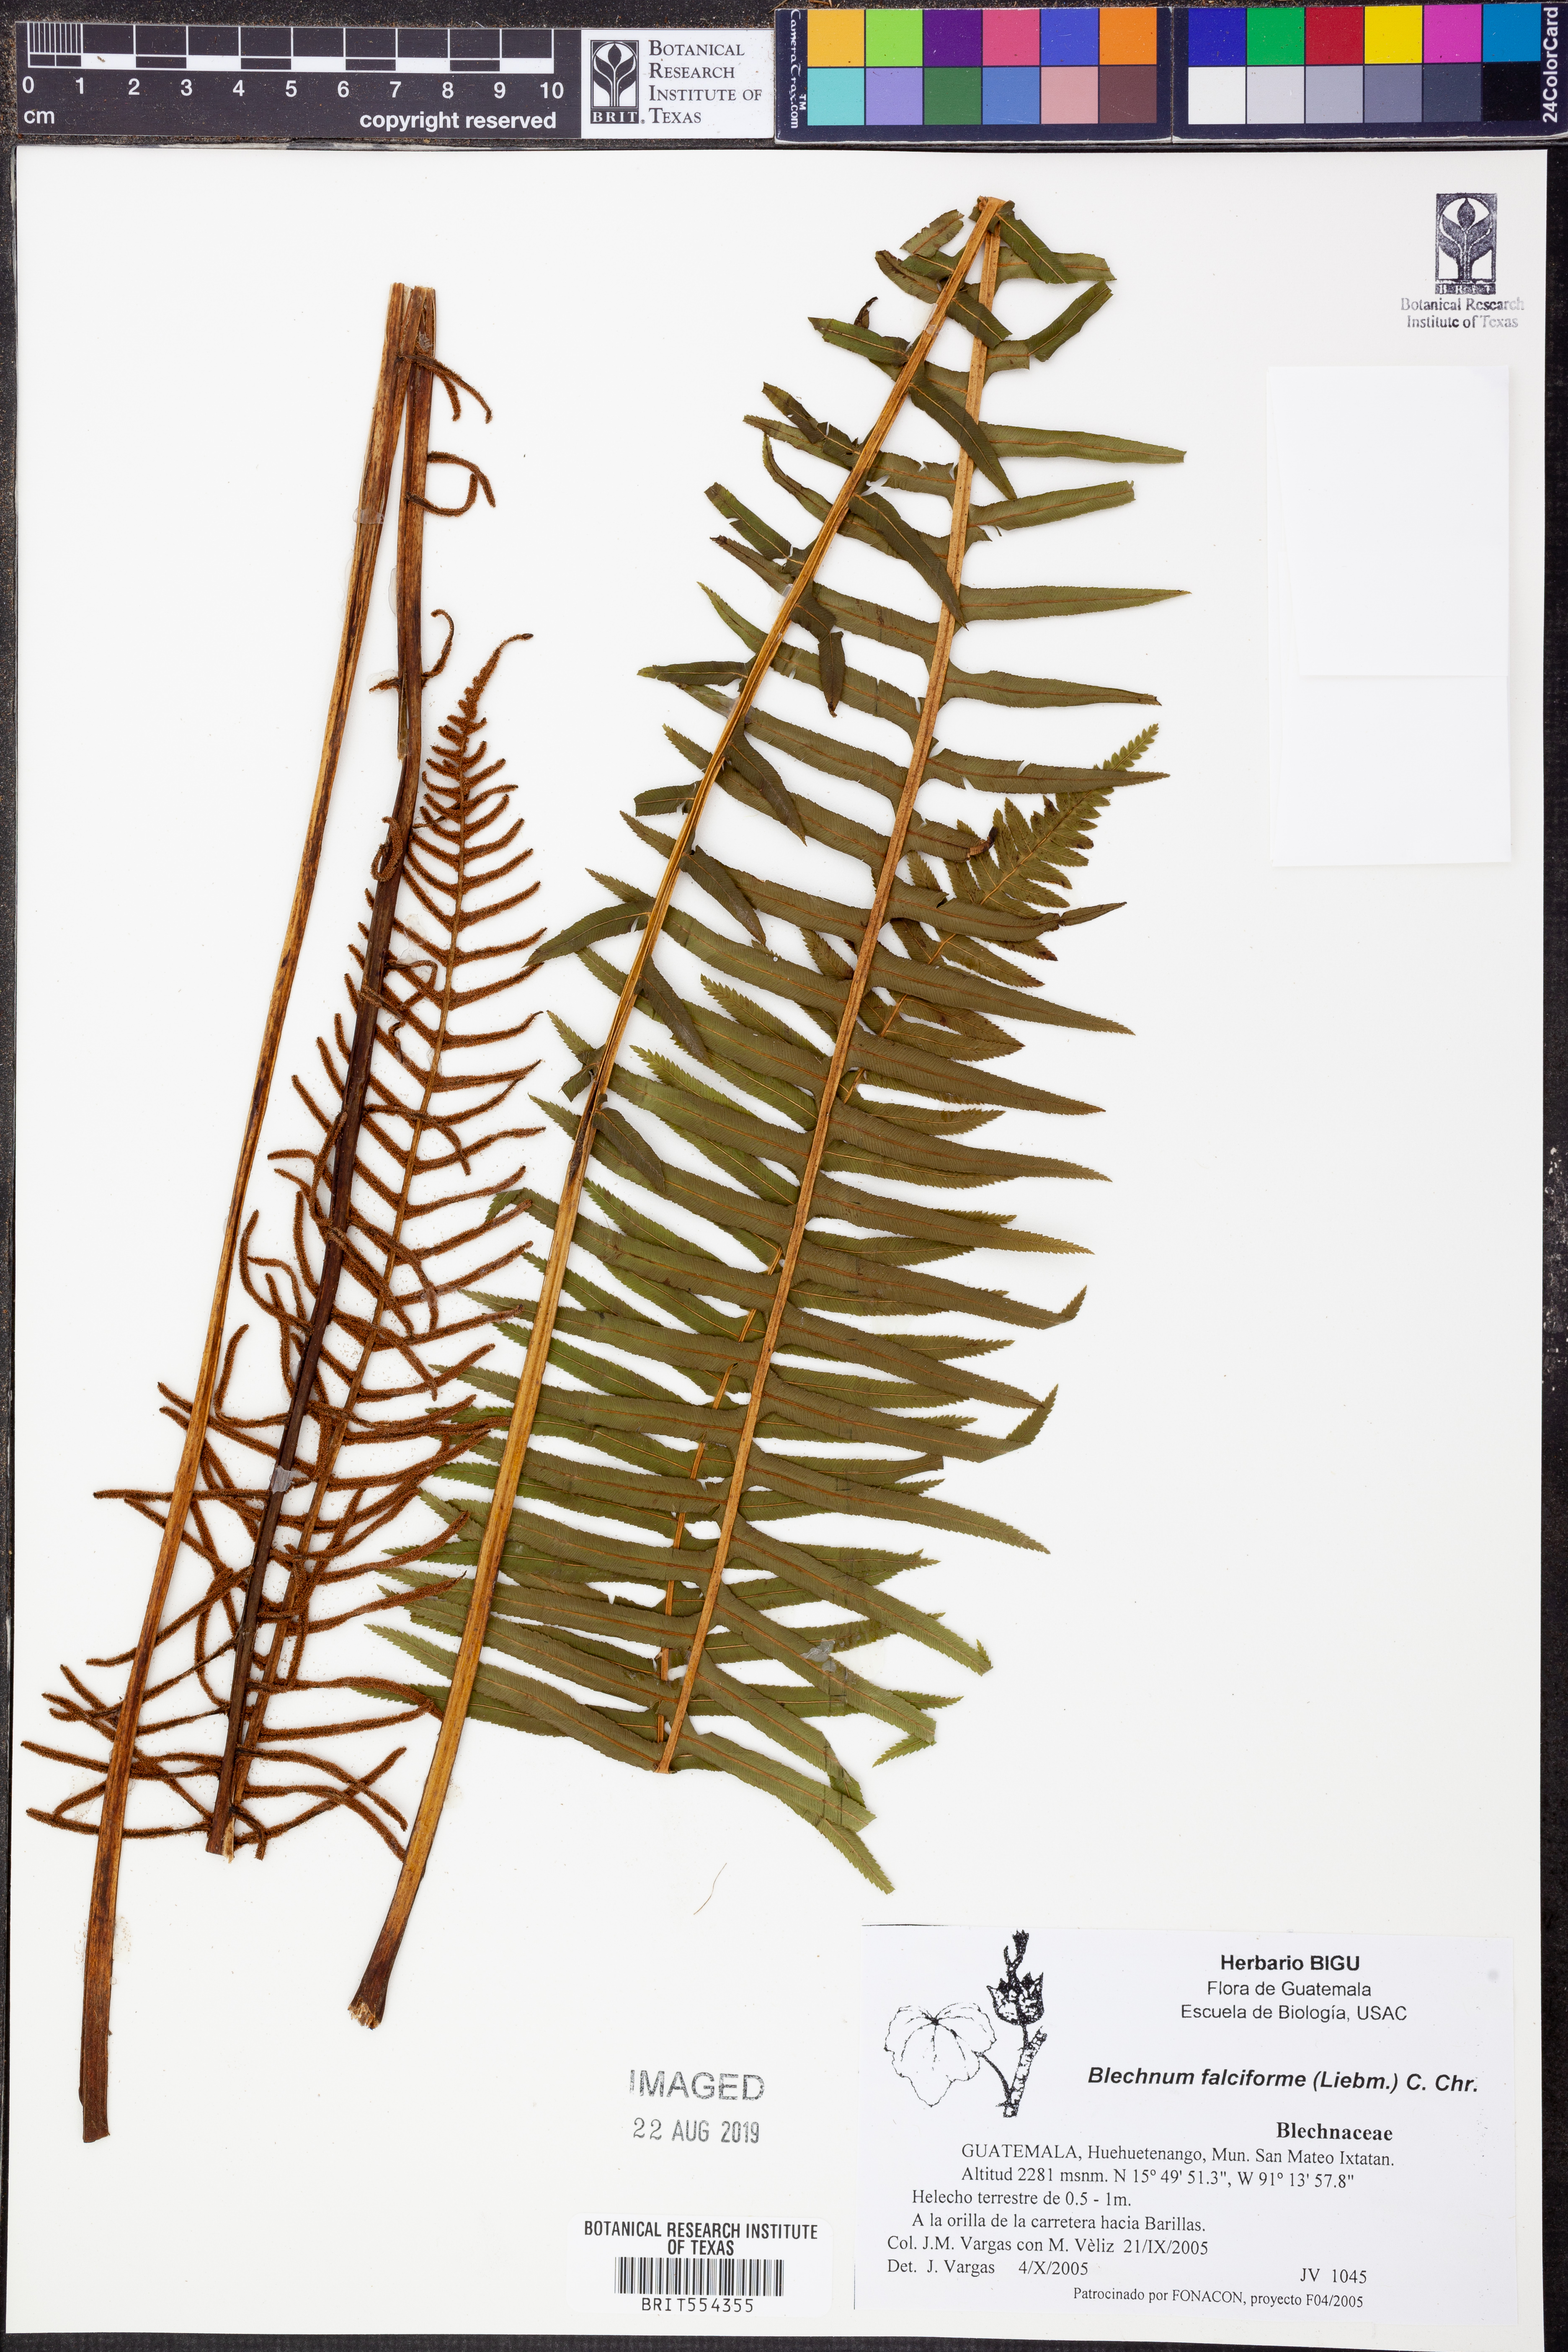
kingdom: Plantae
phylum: Tracheophyta
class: Polypodiopsida
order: Polypodiales
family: Blechnaceae
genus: Parablechnum
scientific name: Parablechnum falciforme
